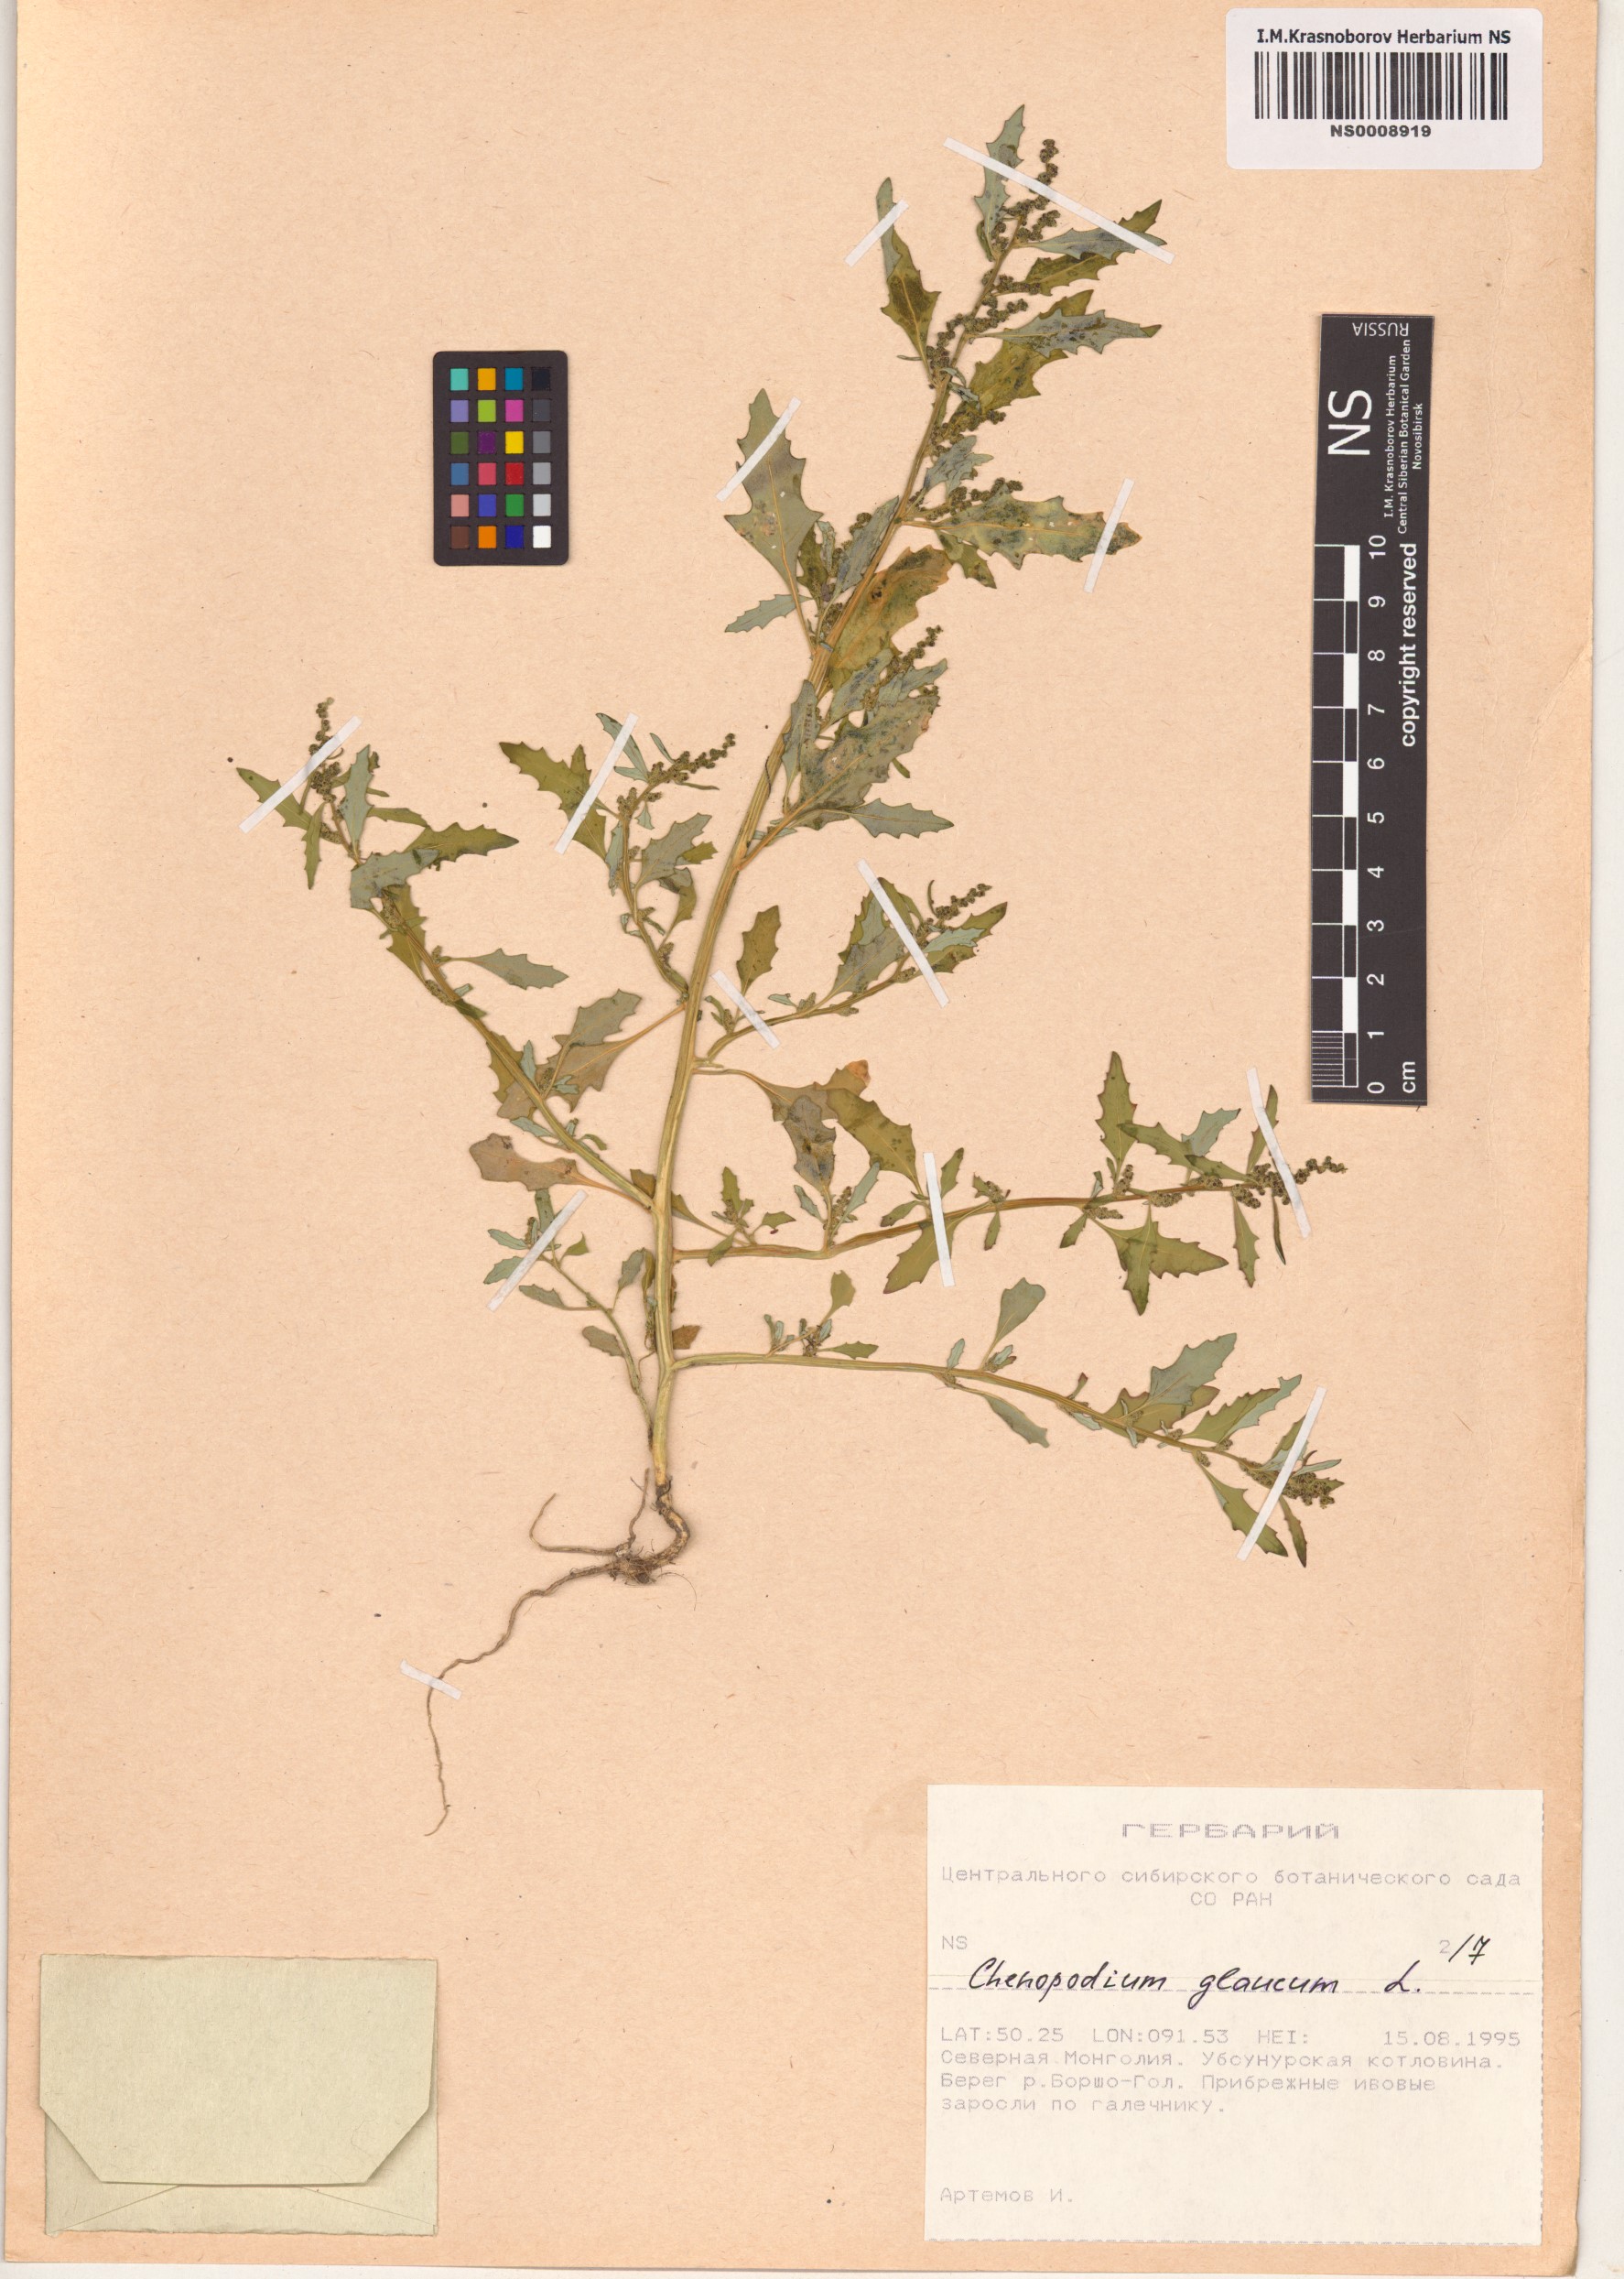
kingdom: Plantae
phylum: Tracheophyta
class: Magnoliopsida
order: Caryophyllales
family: Amaranthaceae
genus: Oxybasis
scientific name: Oxybasis glauca
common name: Glaucous goosefoot
